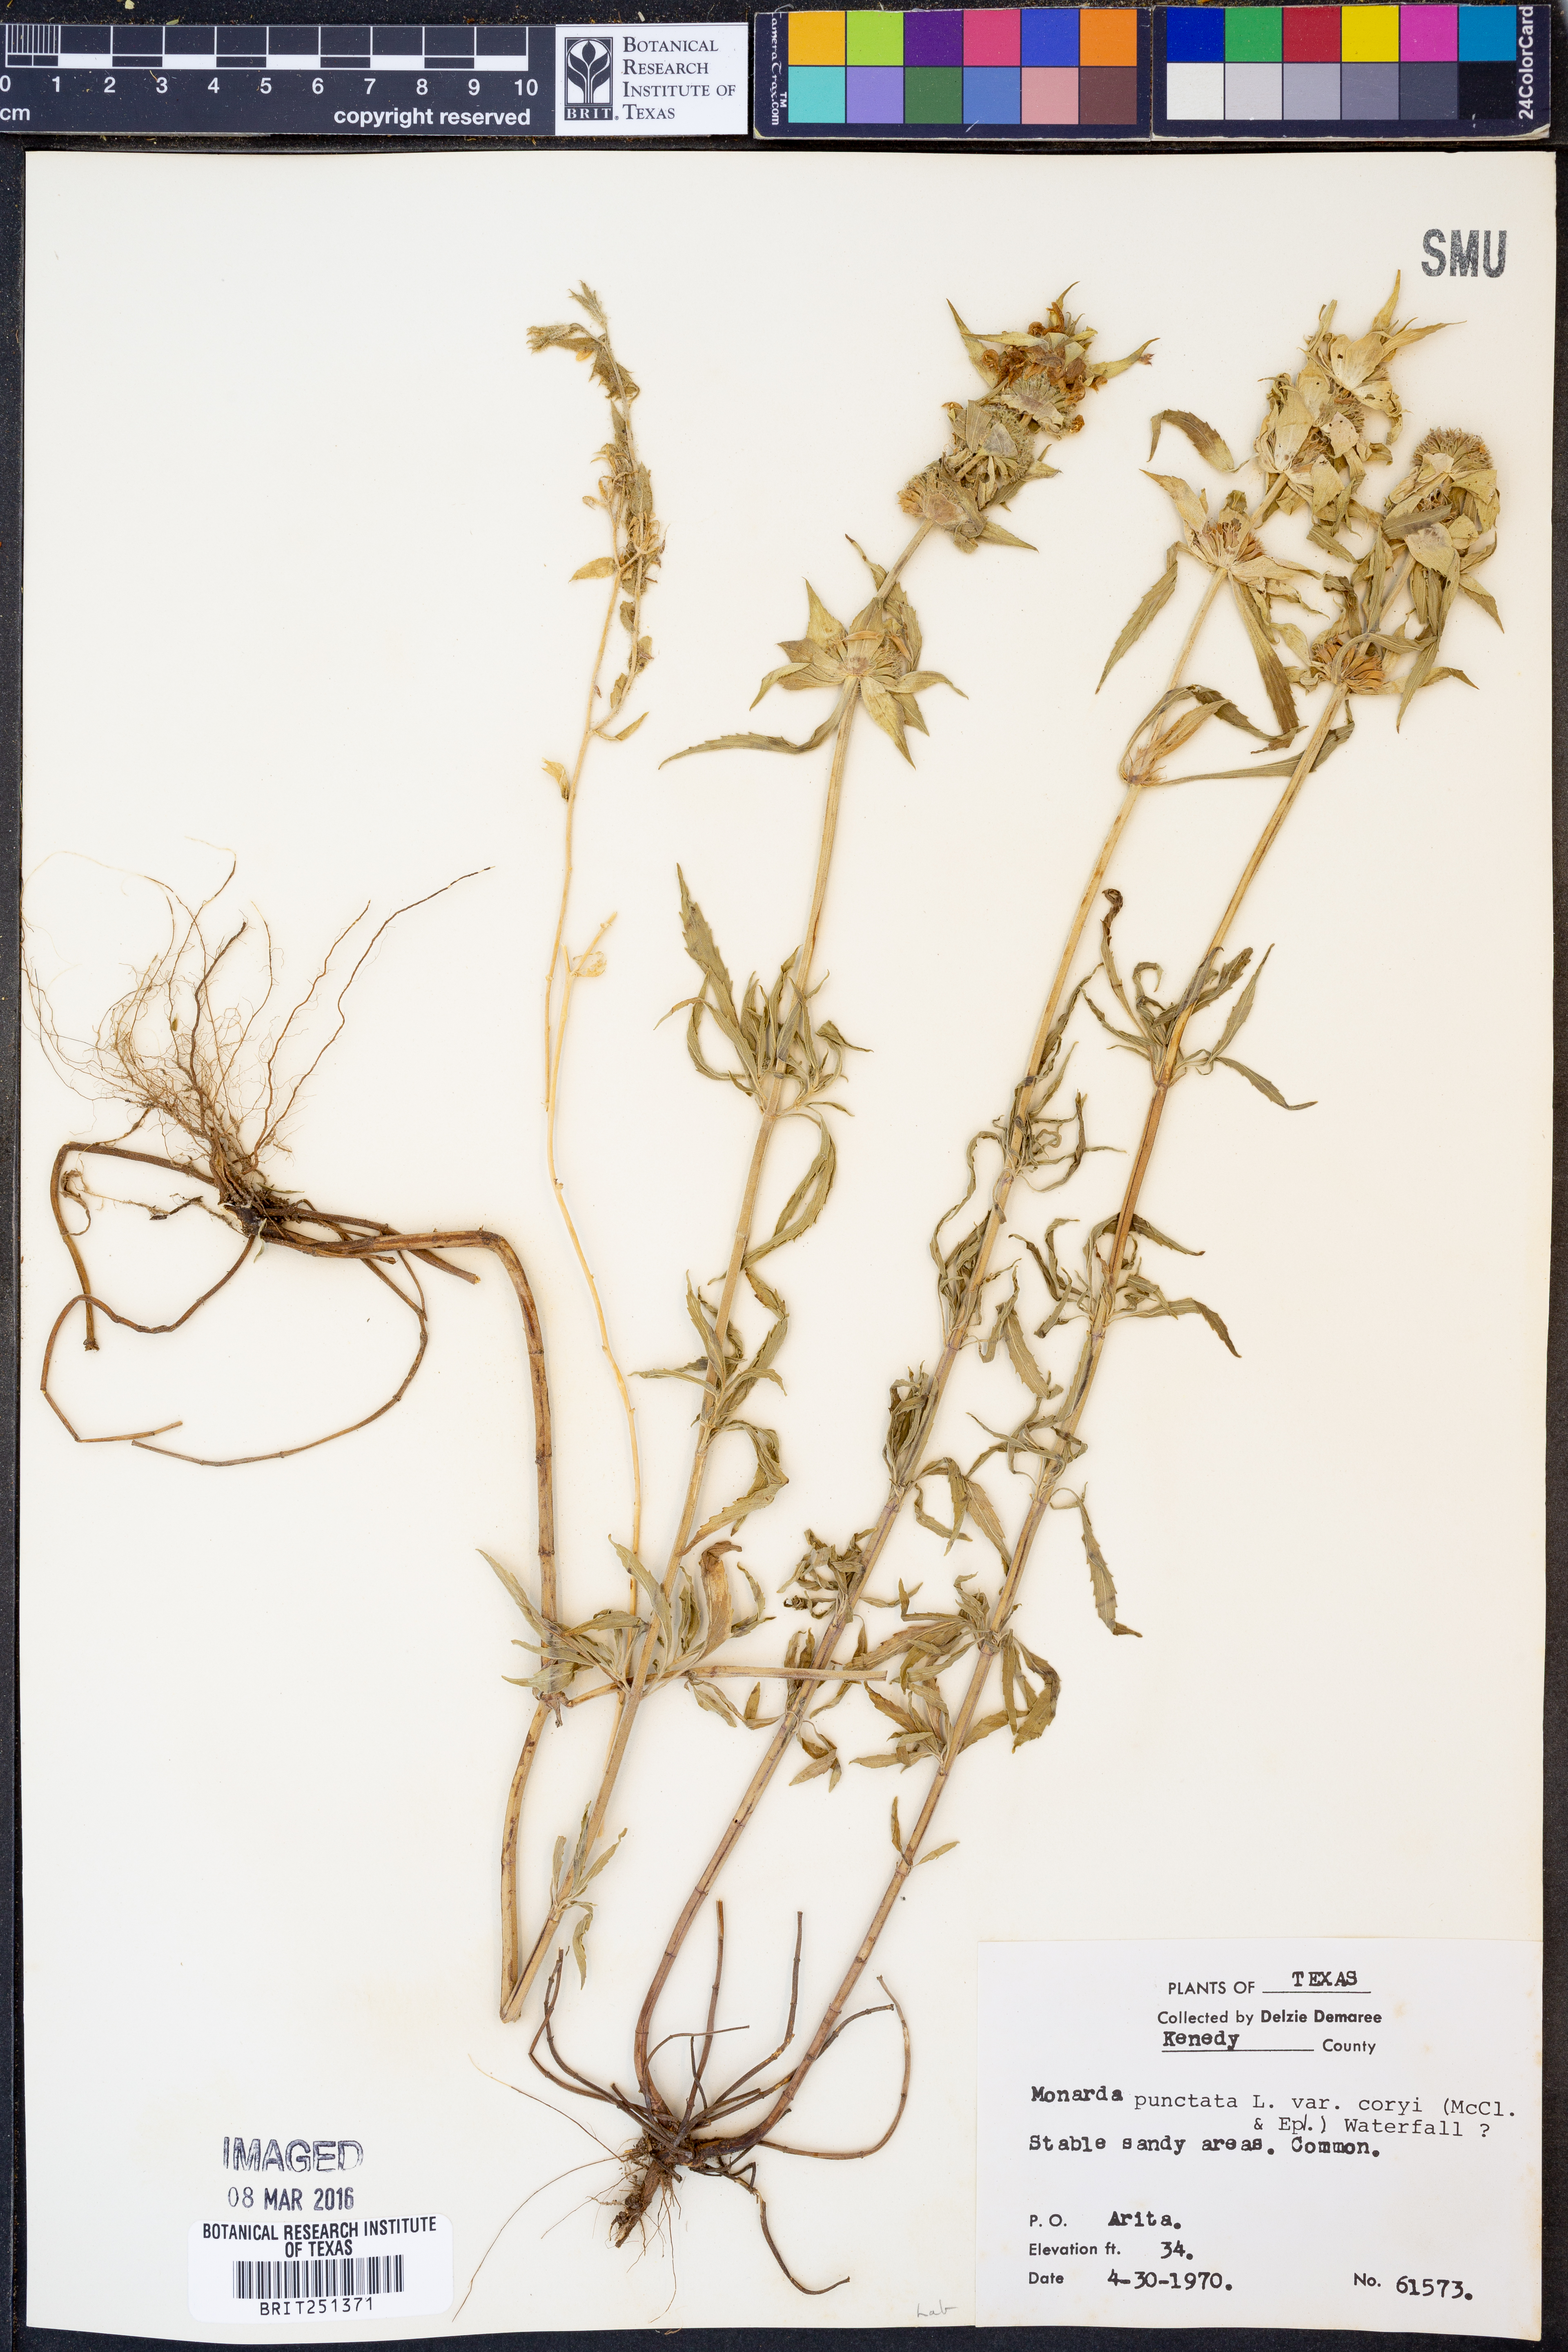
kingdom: Plantae
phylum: Tracheophyta
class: Magnoliopsida
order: Lamiales
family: Lamiaceae
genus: Monarda
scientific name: Monarda punctata
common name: Dotted monarda
